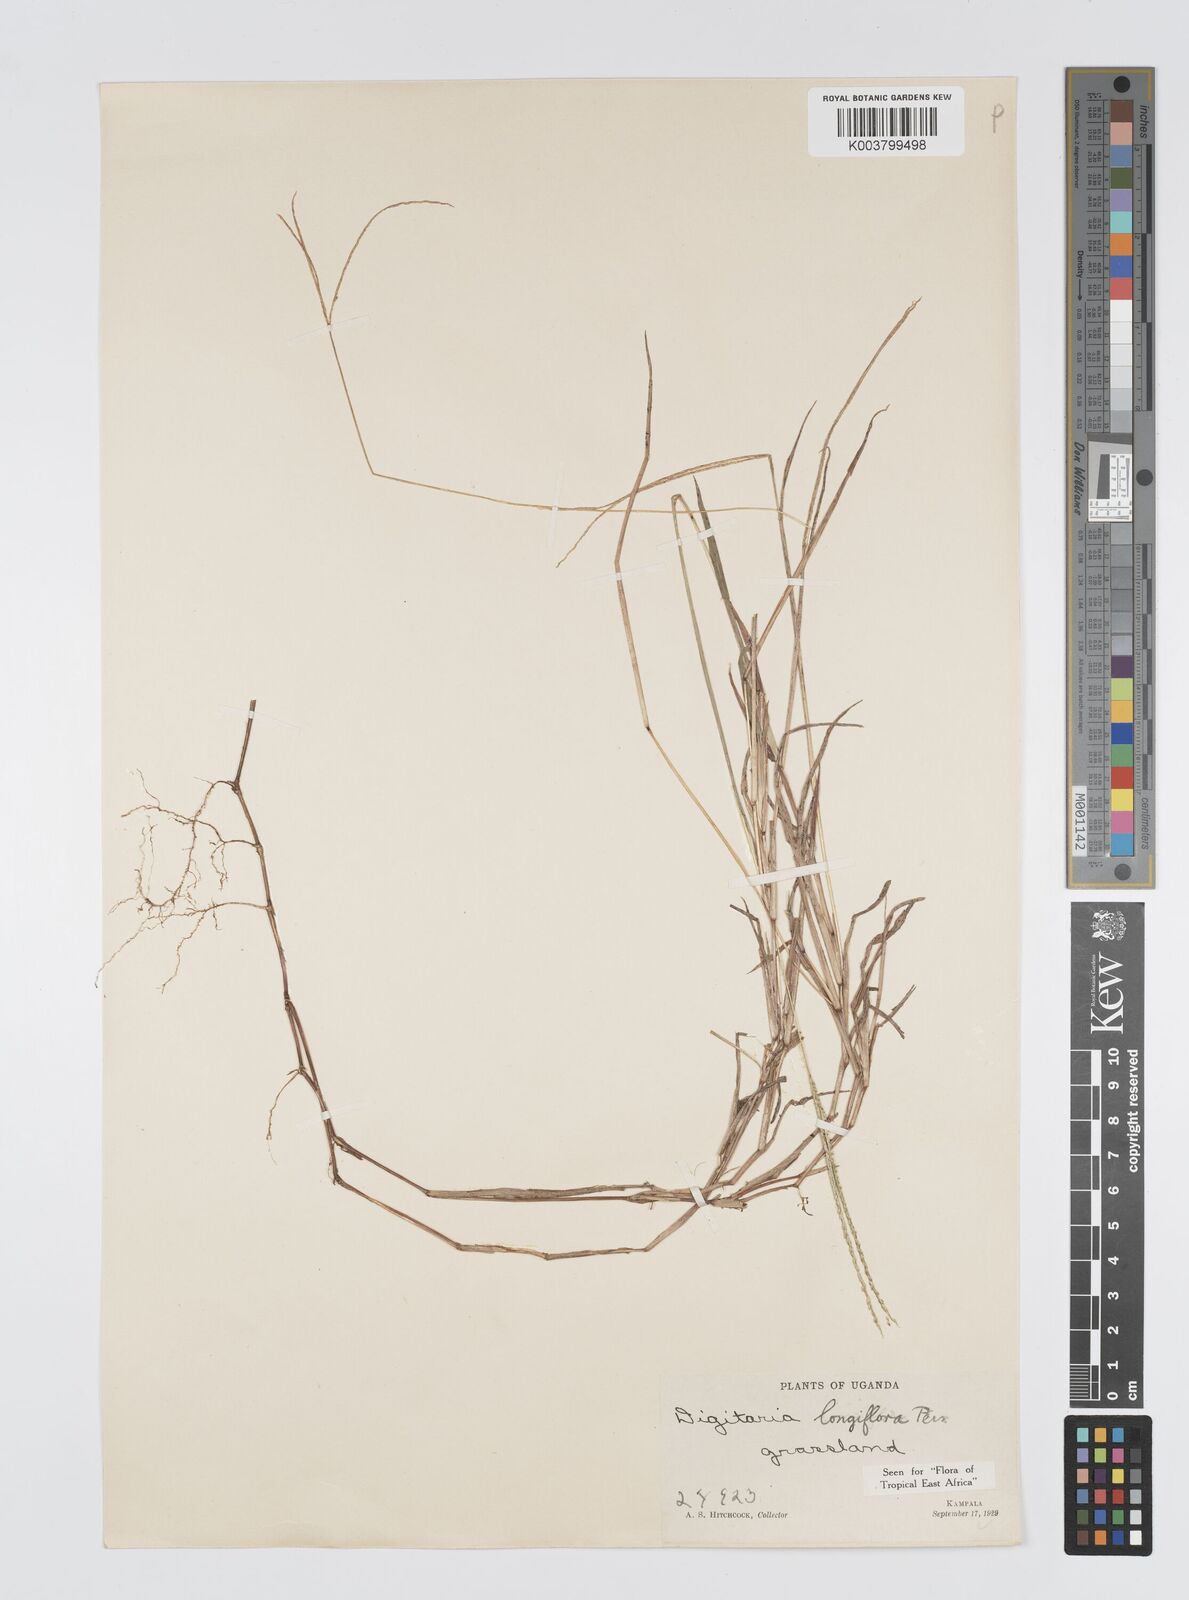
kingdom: Plantae
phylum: Tracheophyta
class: Liliopsida
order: Poales
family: Poaceae
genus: Digitaria
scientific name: Digitaria longiflora
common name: Wire crabgrass
